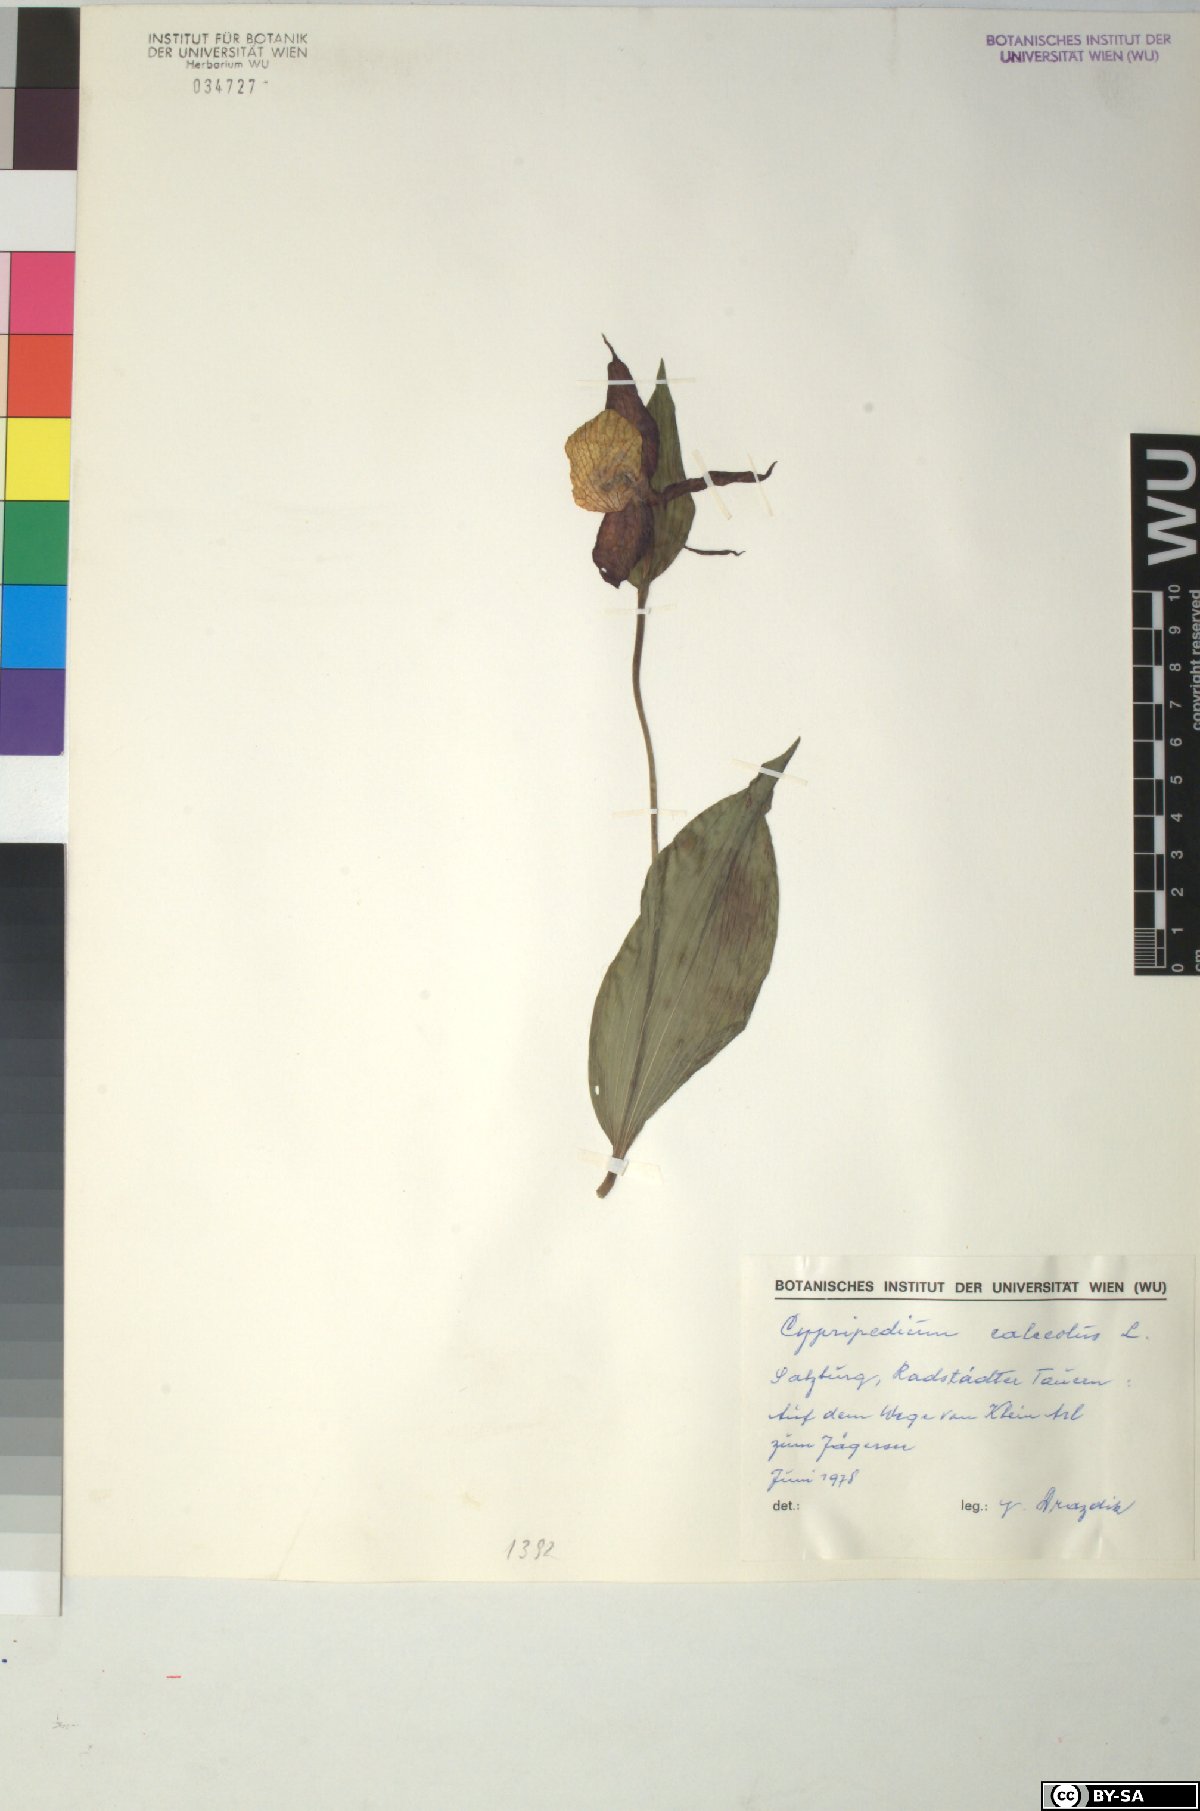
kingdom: Plantae
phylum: Tracheophyta
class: Liliopsida
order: Asparagales
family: Orchidaceae
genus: Cypripedium
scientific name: Cypripedium calceolus
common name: Lady's-slipper
